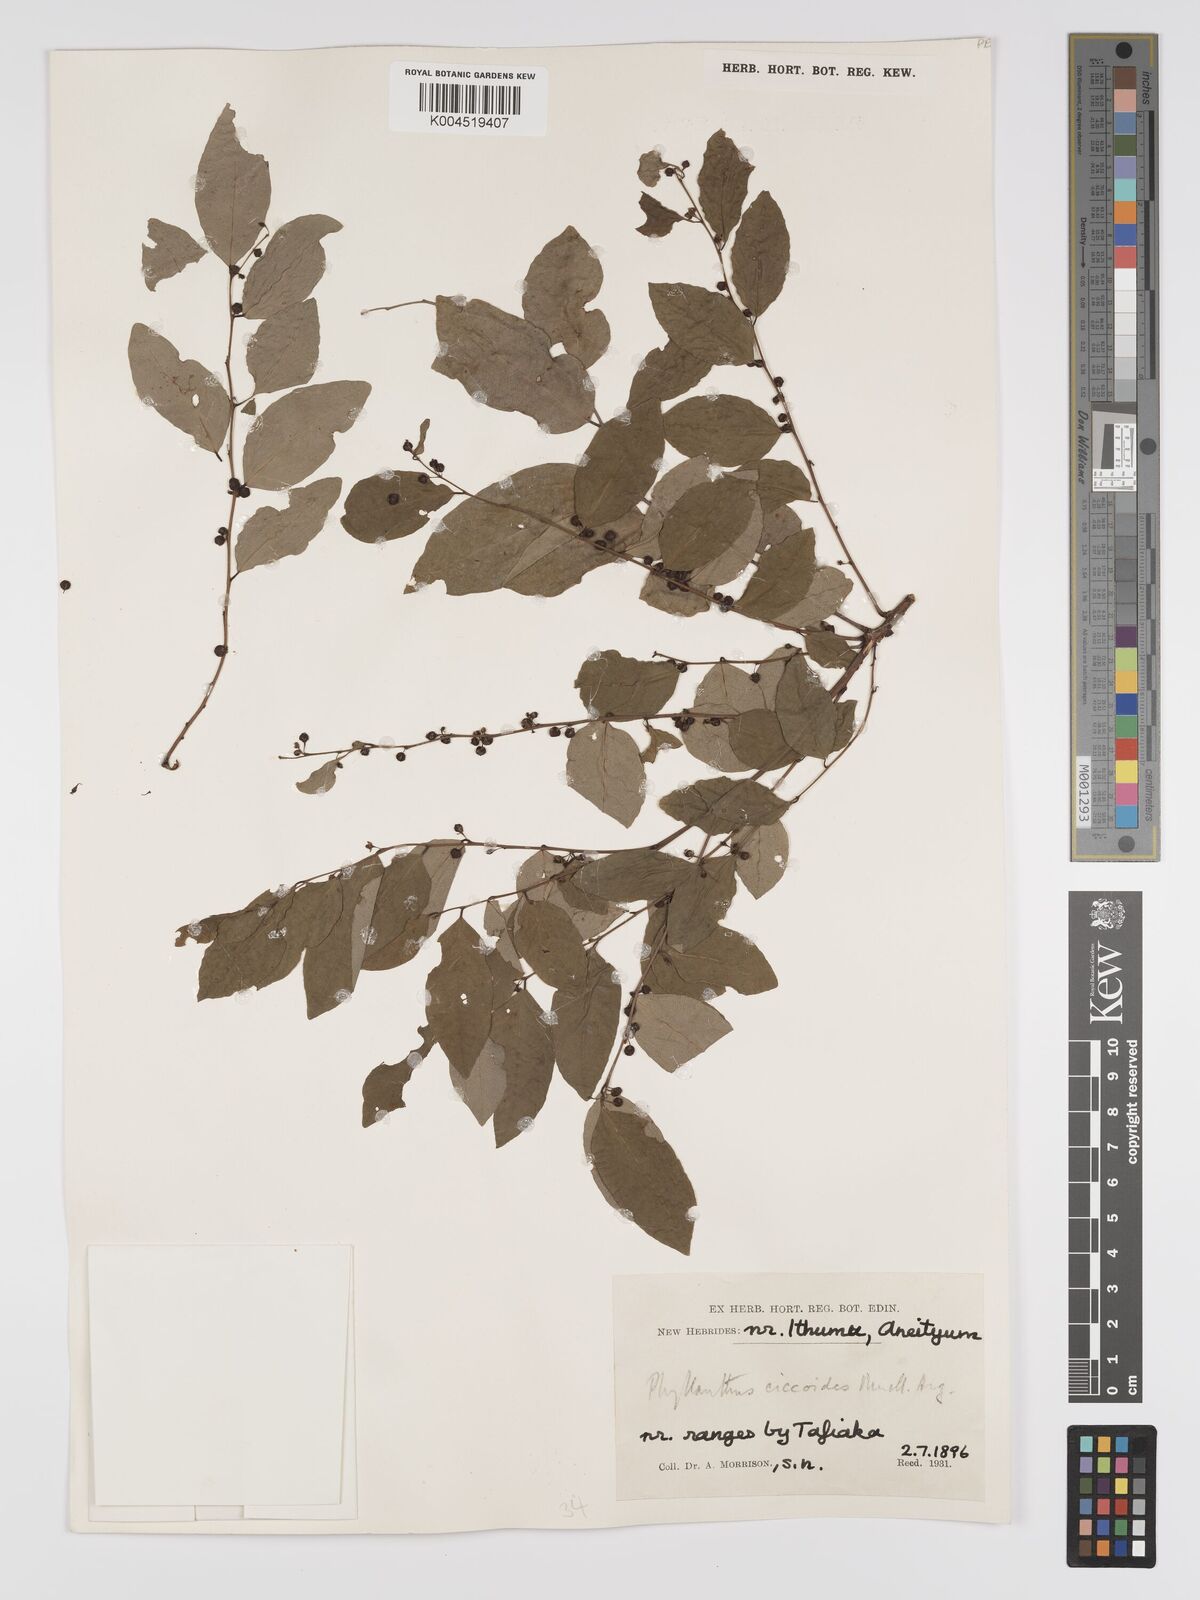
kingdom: Plantae
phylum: Tracheophyta
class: Magnoliopsida
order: Malpighiales
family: Phyllanthaceae
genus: Phyllanthus
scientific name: Phyllanthus ciccoides
